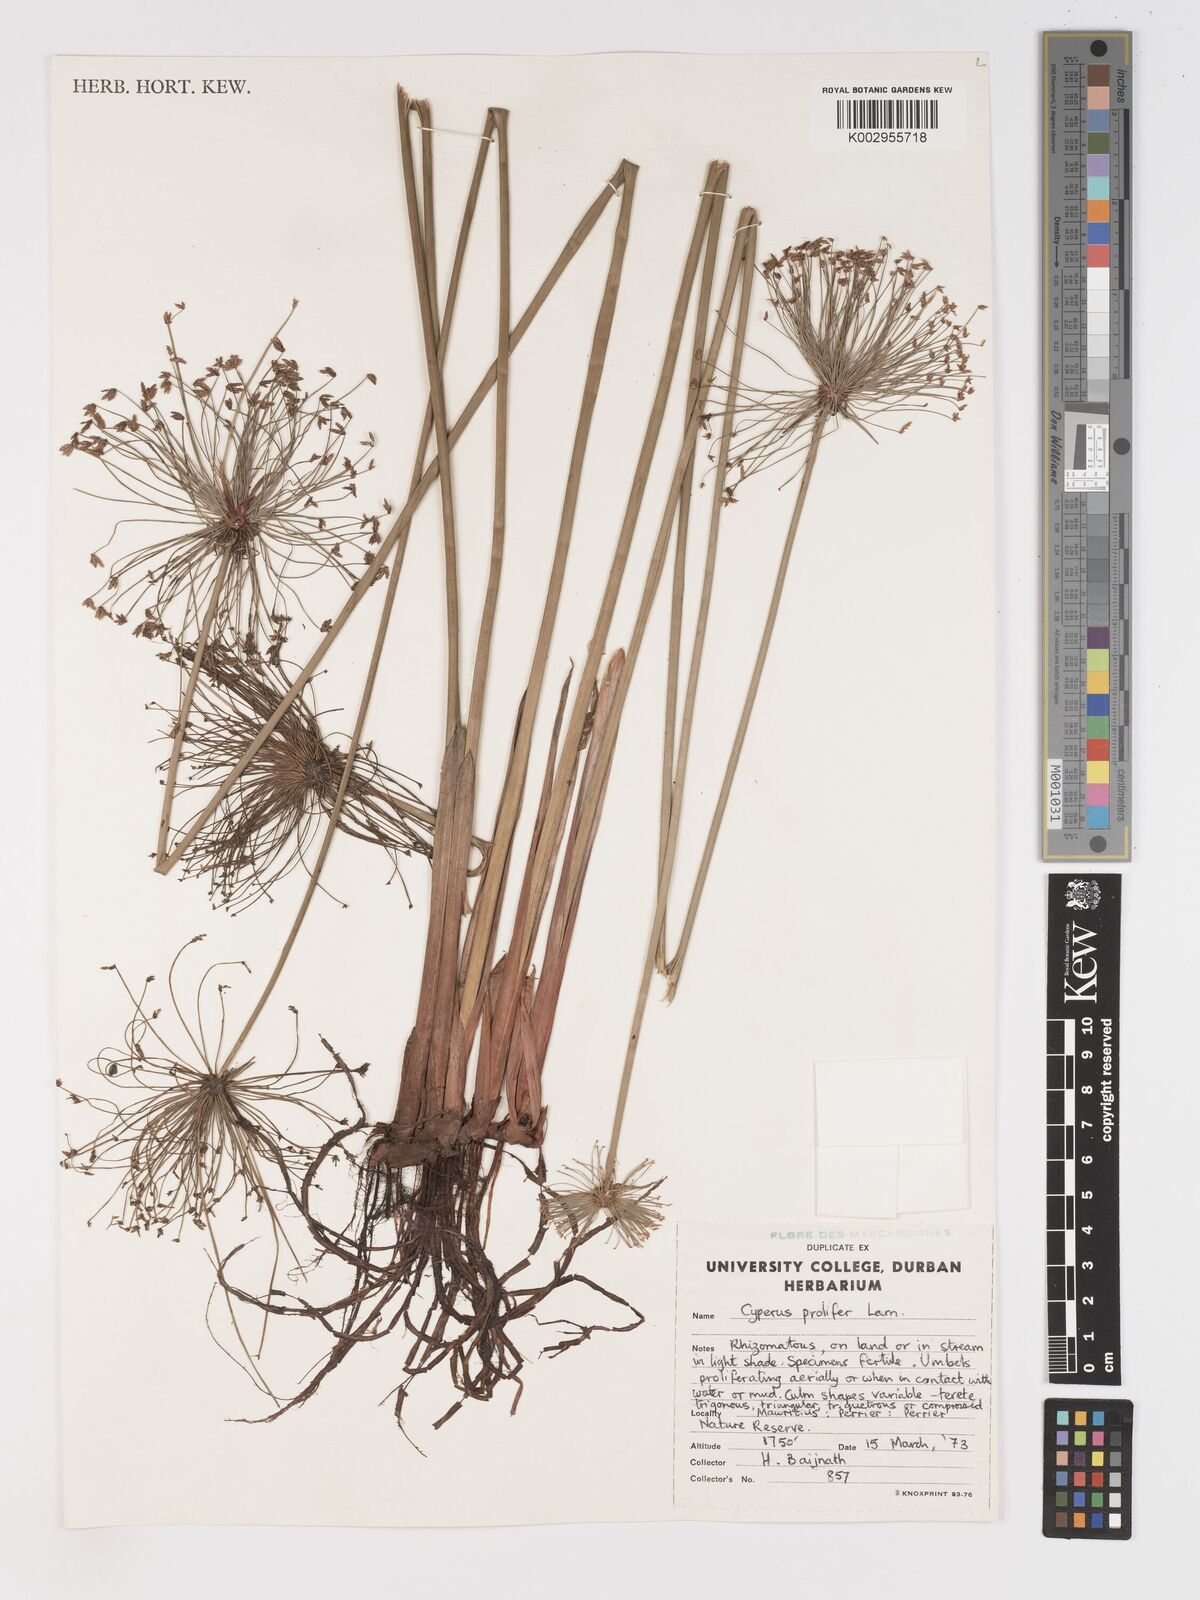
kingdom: Plantae
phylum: Tracheophyta
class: Liliopsida
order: Poales
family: Cyperaceae
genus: Cyperus
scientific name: Cyperus prolifer
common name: Miniature flatsedge
